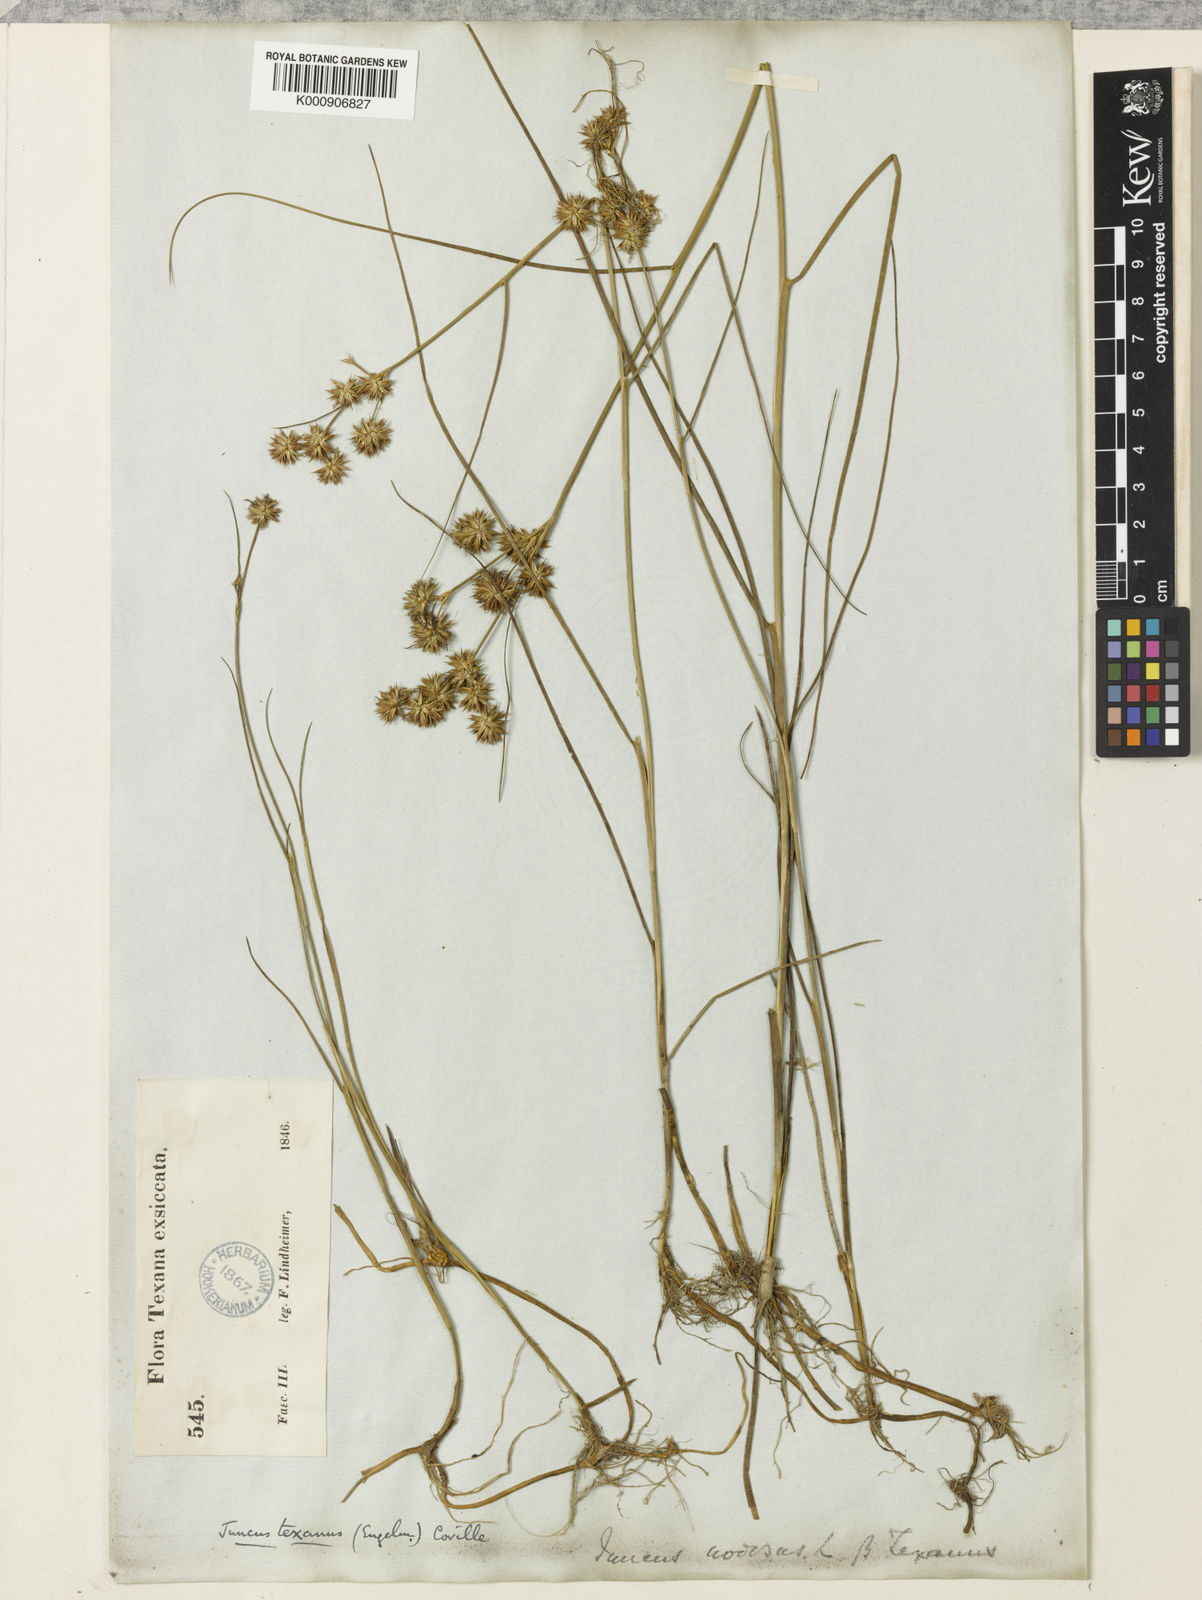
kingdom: Plantae
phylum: Tracheophyta
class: Liliopsida
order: Poales
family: Juncaceae
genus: Juncus
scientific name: Juncus texanus
